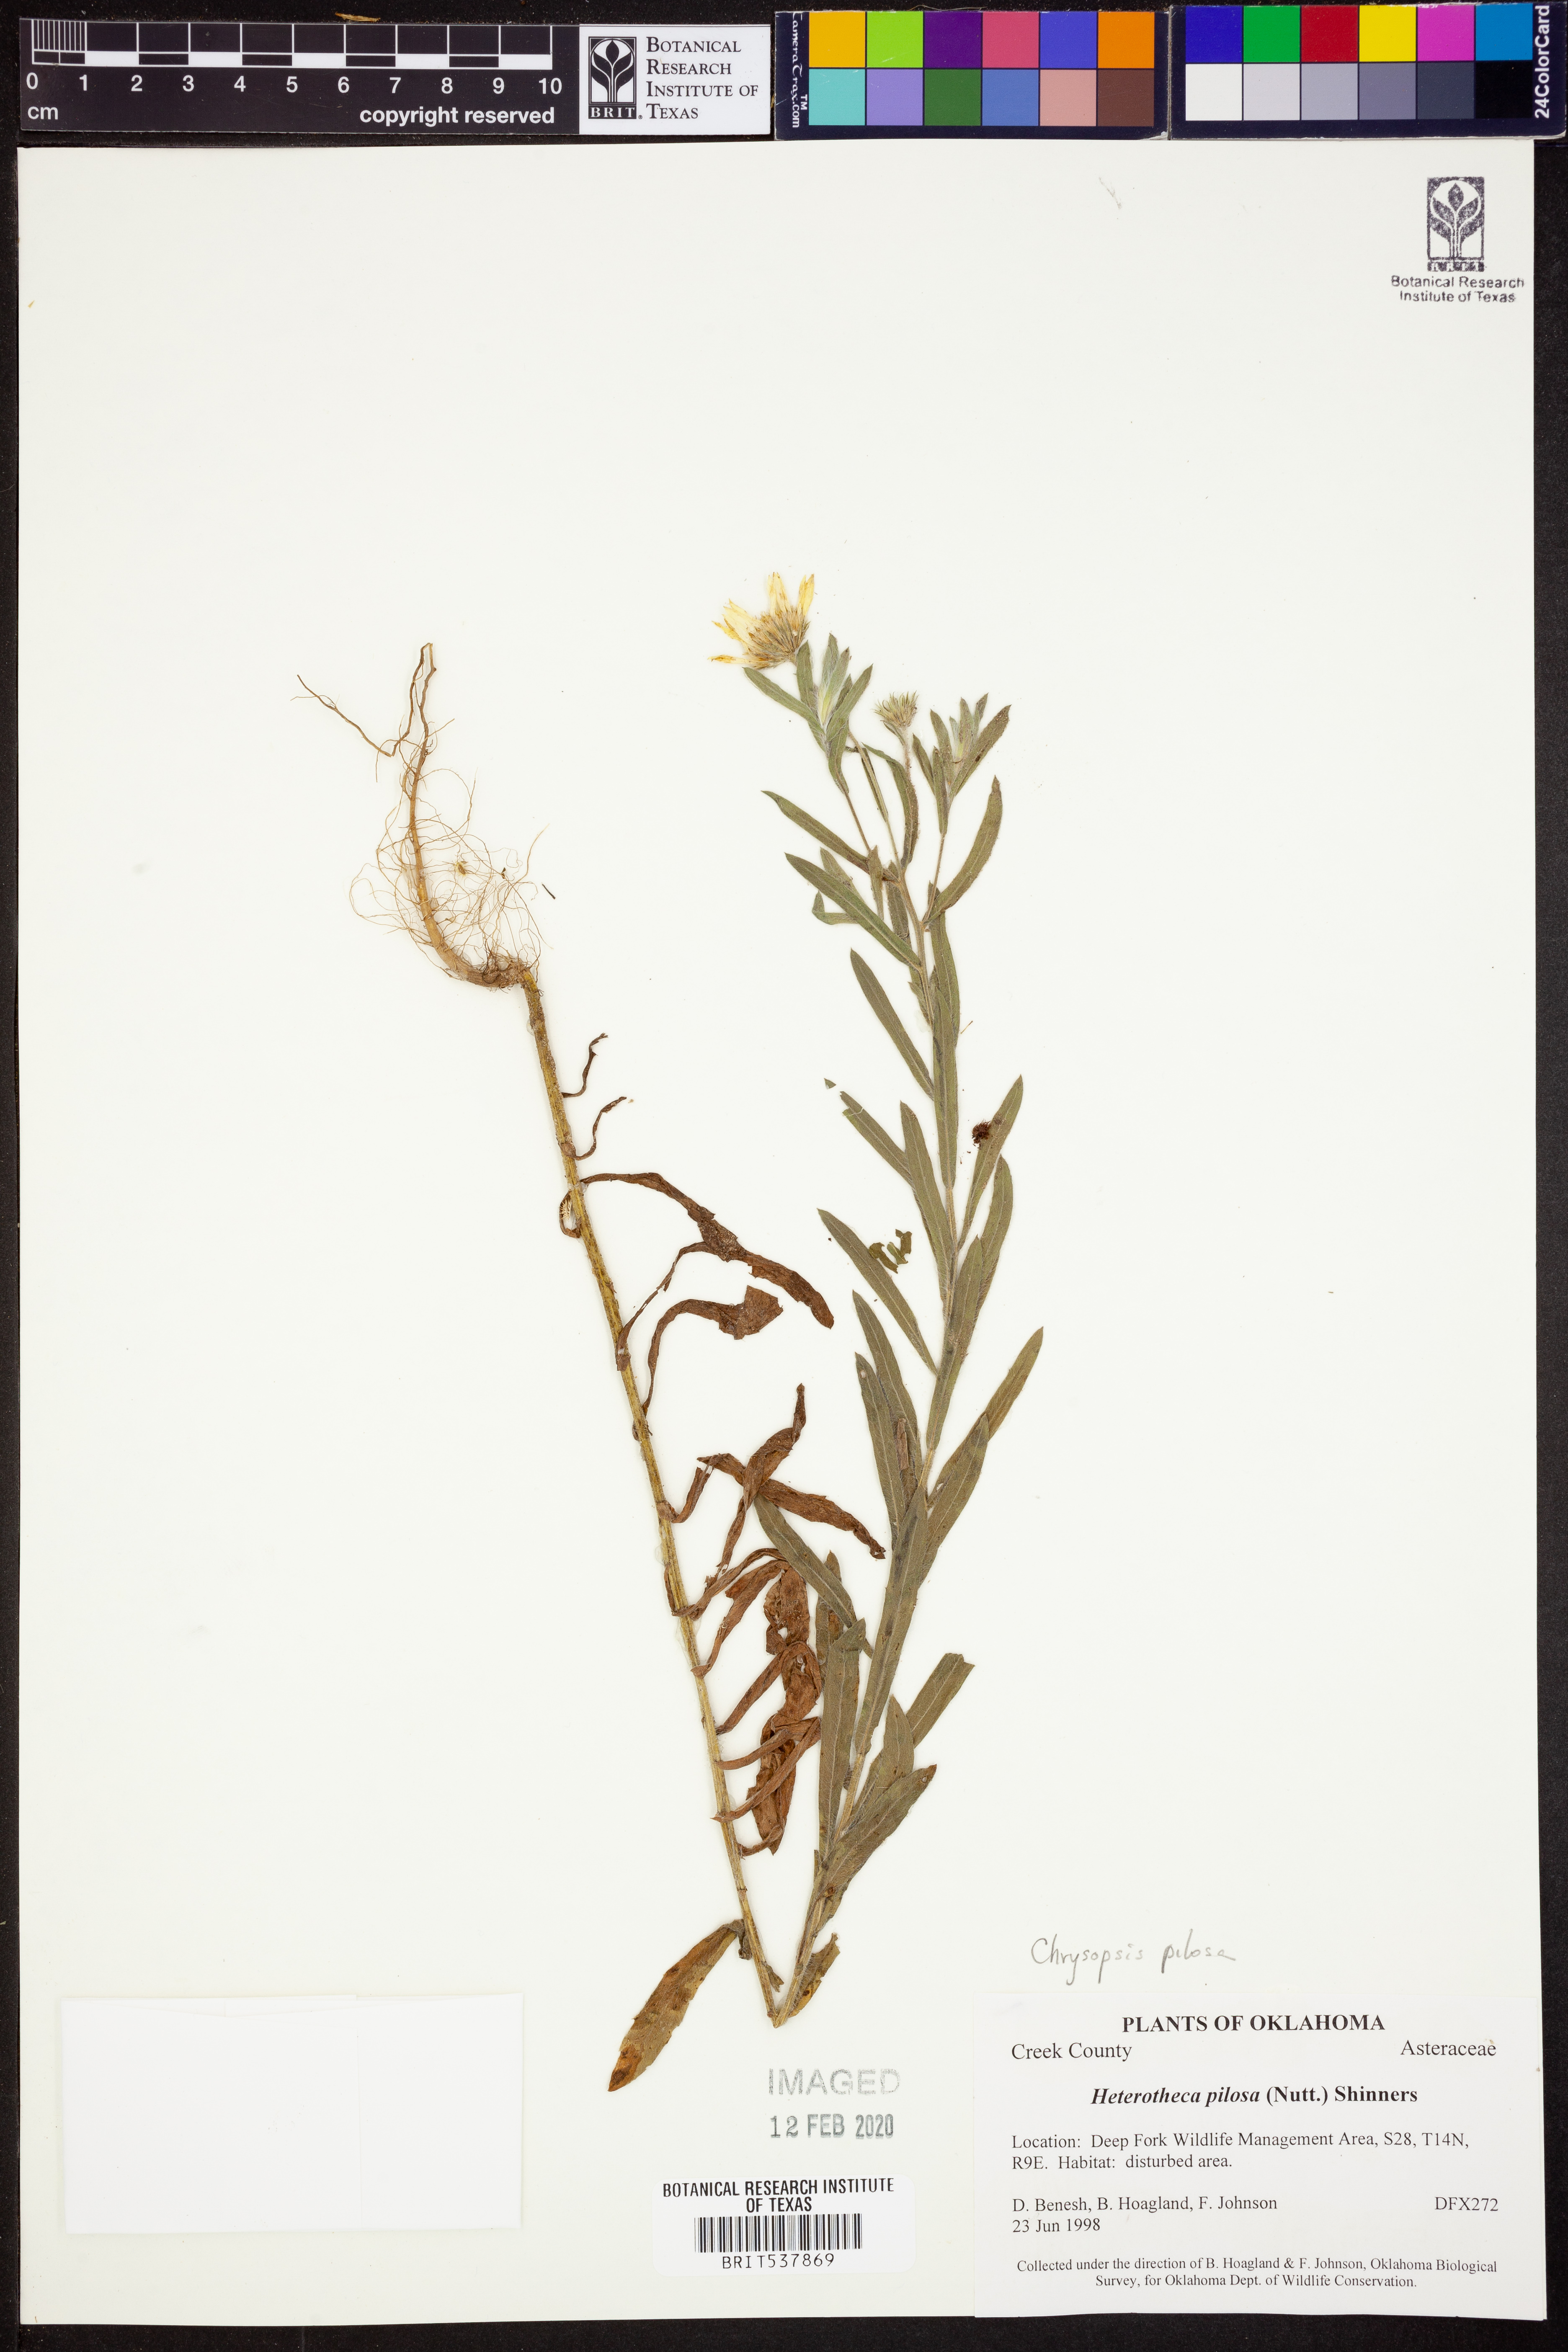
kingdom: Plantae
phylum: Tracheophyta
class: Magnoliopsida
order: Asterales
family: Asteraceae
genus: Bradburia
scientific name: Bradburia pilosa
